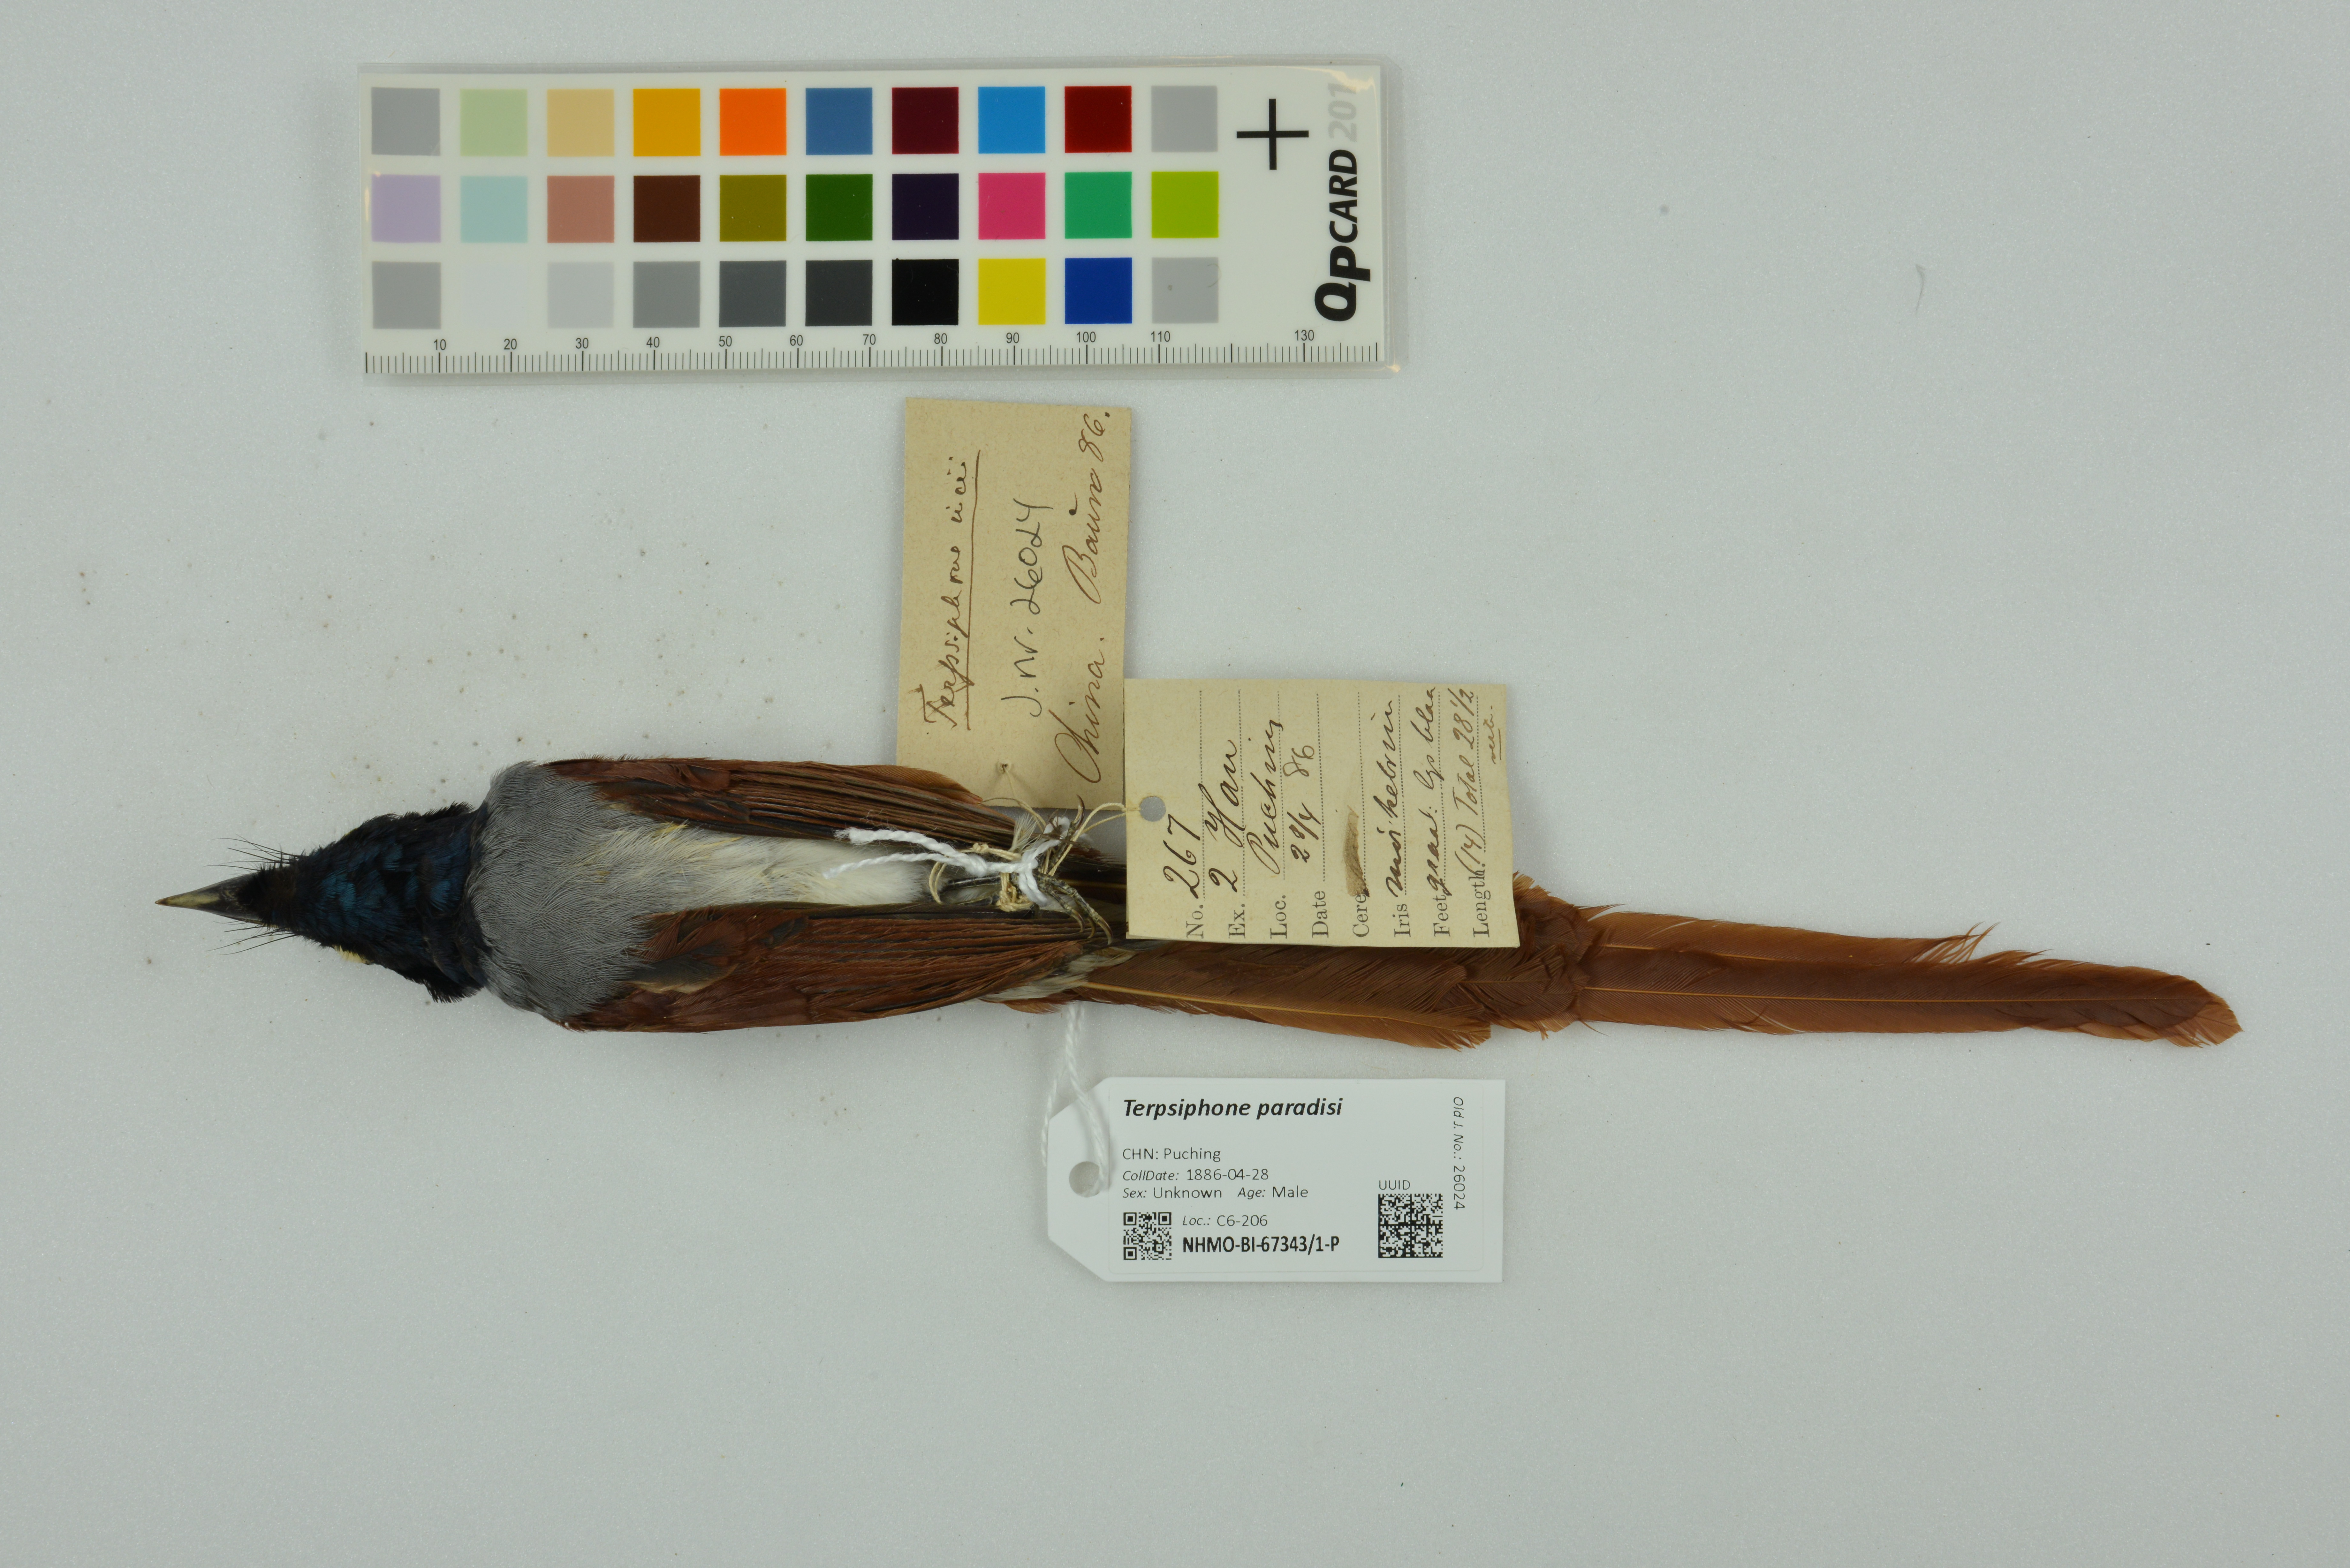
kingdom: Animalia
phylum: Chordata
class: Aves
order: Passeriformes
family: Monarchidae
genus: Terpsiphone
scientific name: Terpsiphone paradisi
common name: Indian paradise flycatcher
